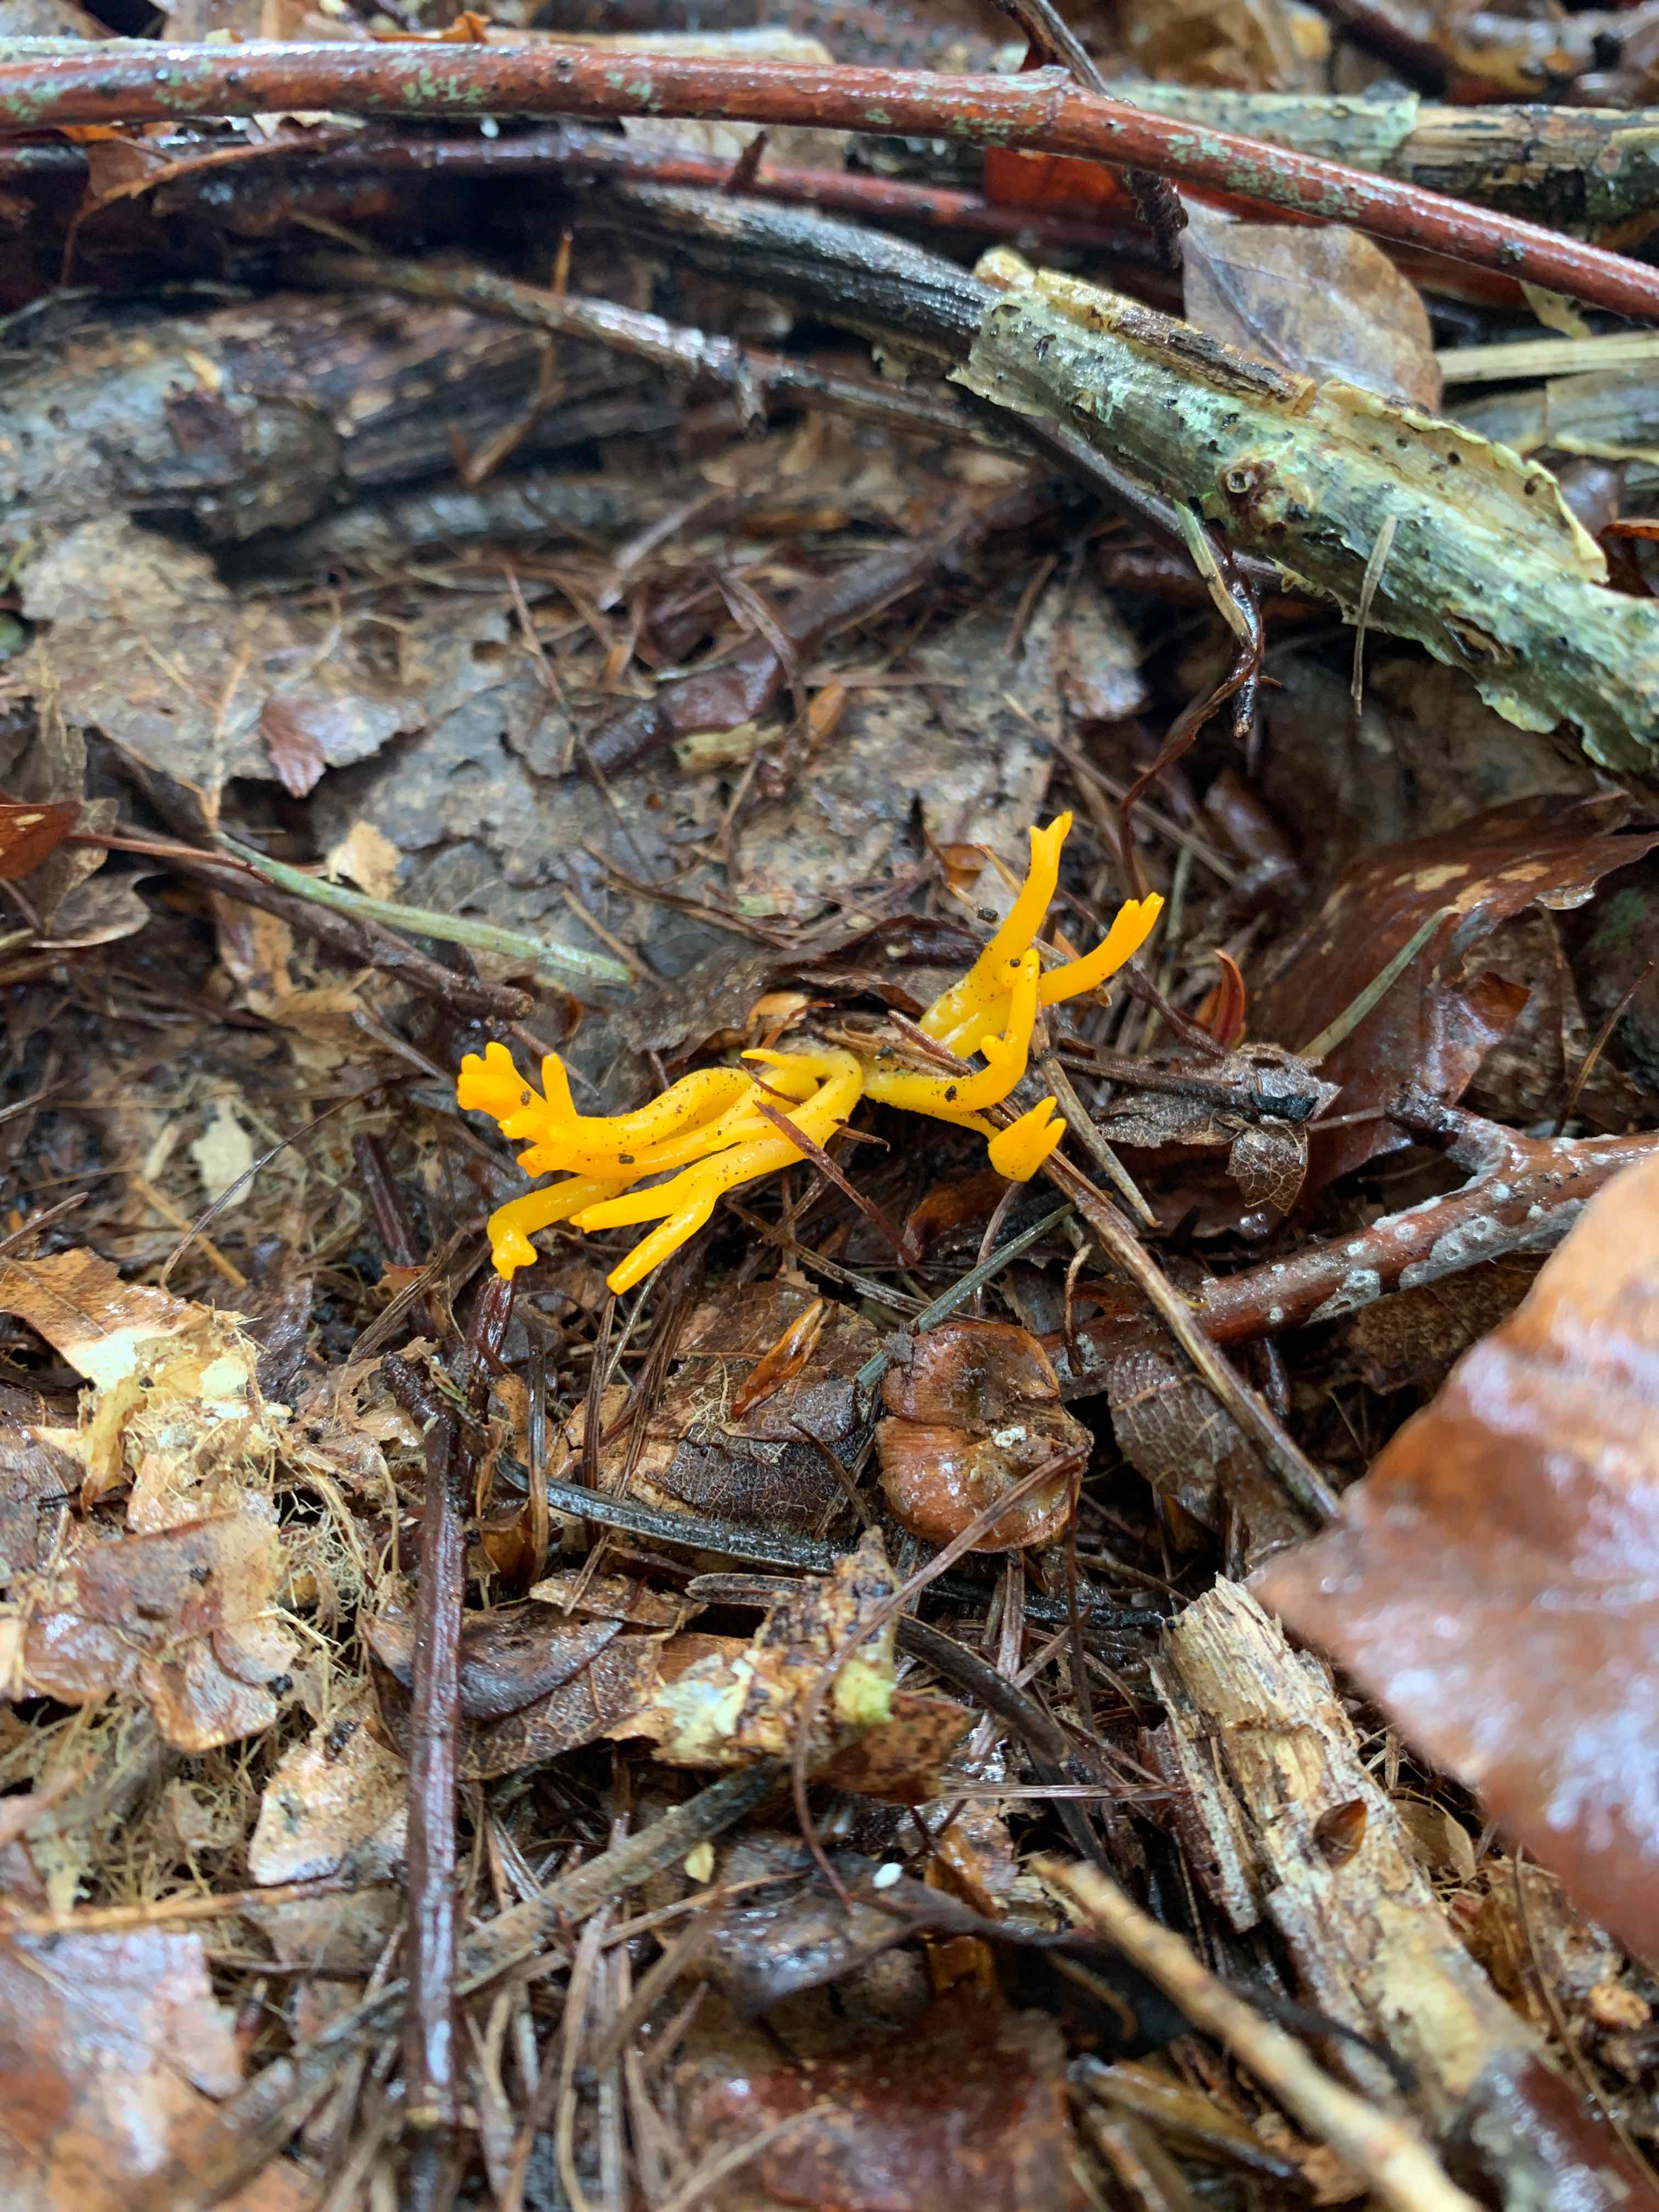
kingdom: Fungi
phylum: Basidiomycota
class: Dacrymycetes
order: Dacrymycetales
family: Dacrymycetaceae
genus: Calocera
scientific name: Calocera viscosa
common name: almindelig guldgaffel
